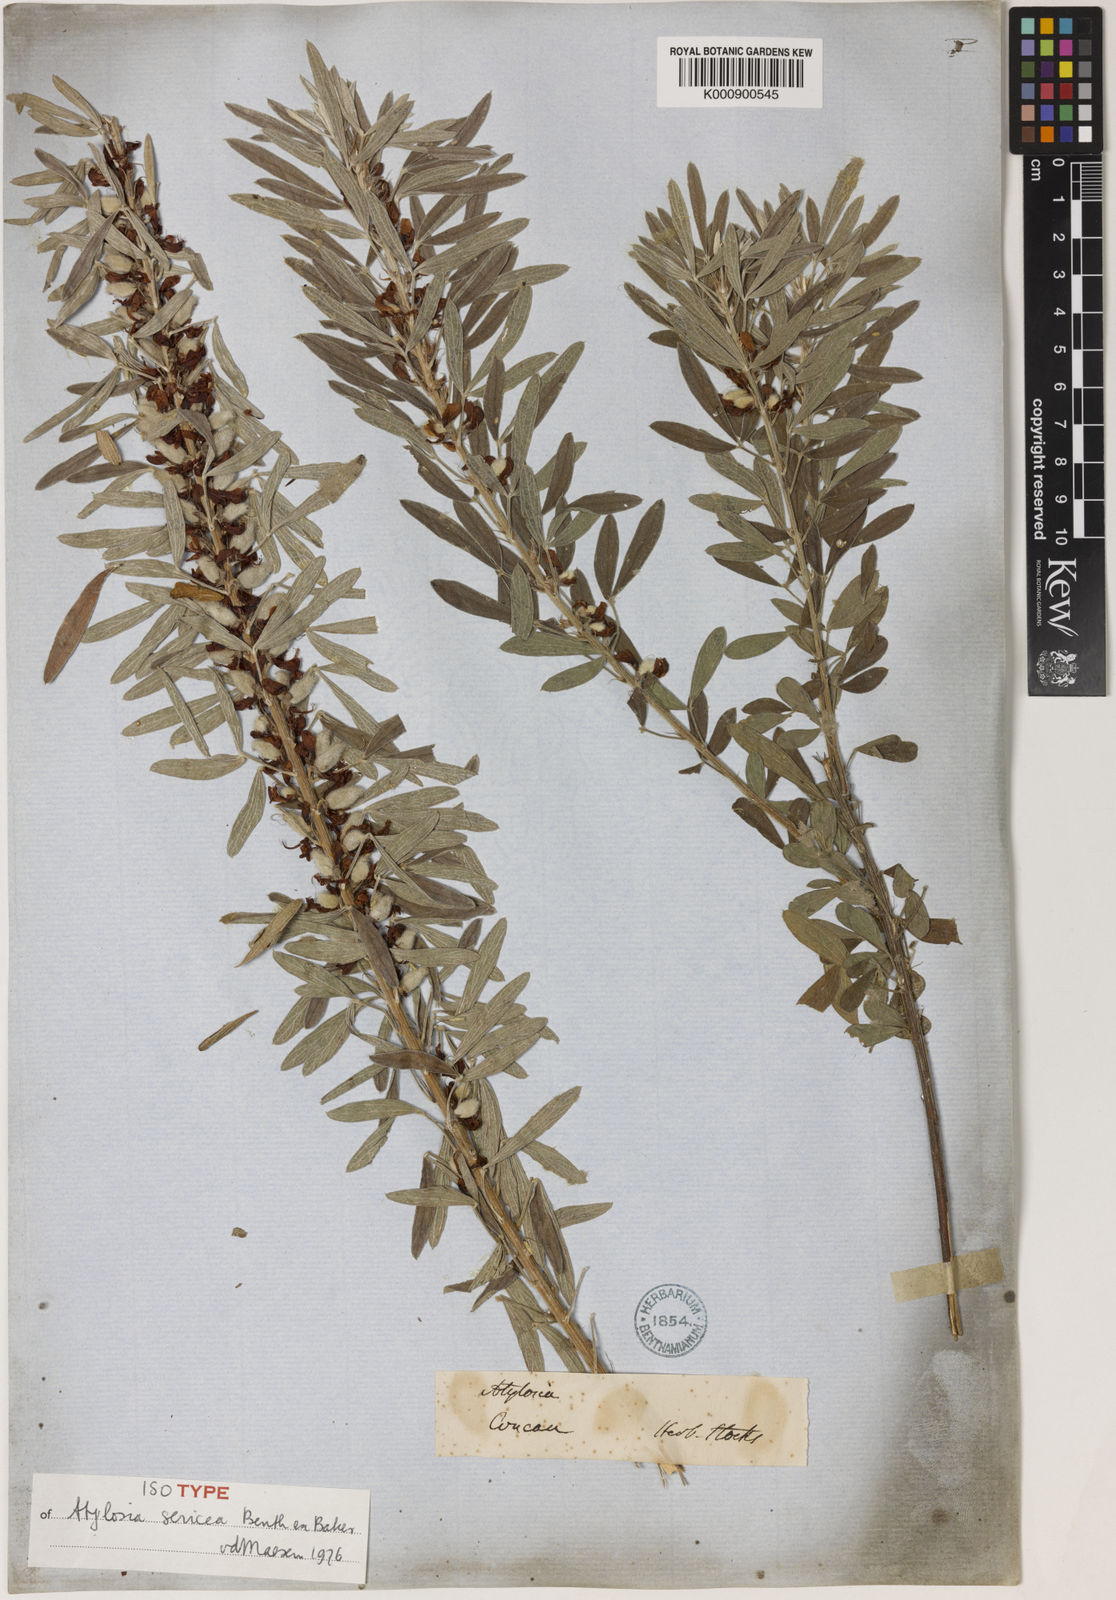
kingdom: Plantae
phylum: Tracheophyta
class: Magnoliopsida
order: Fabales
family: Fabaceae
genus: Cajanus
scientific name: Cajanus sericeus
